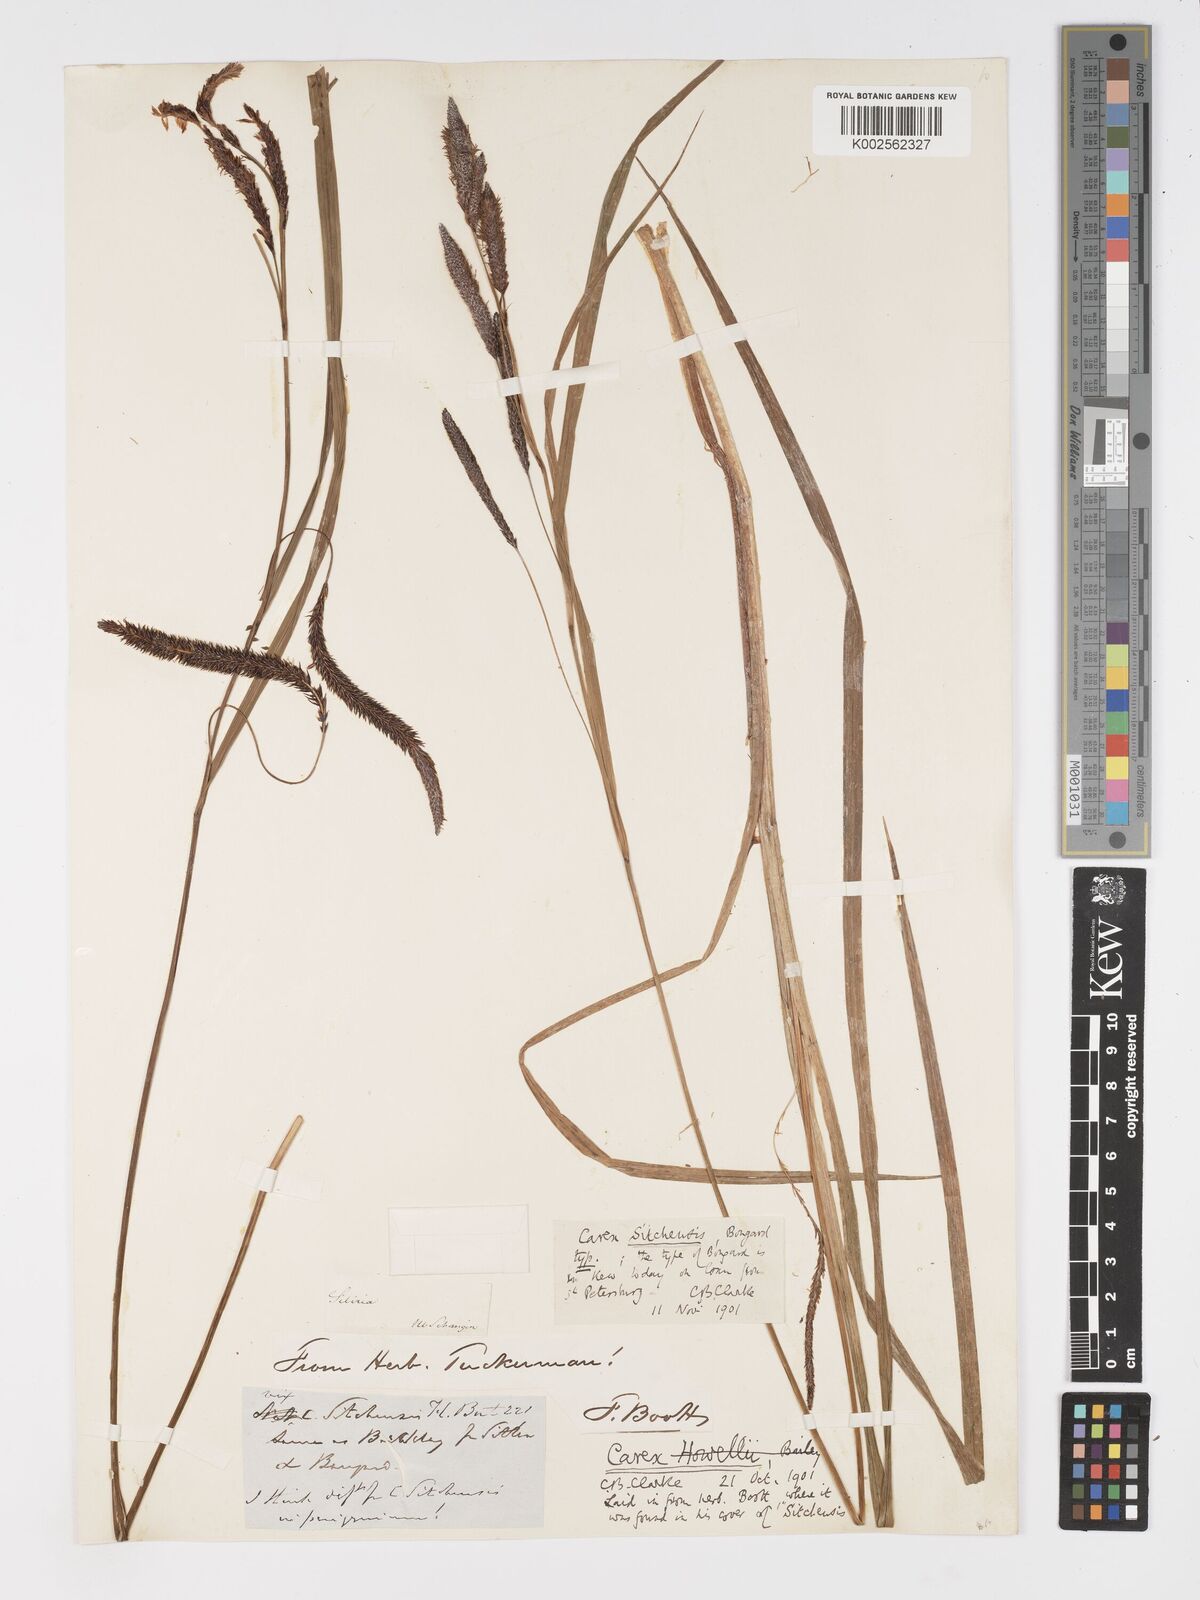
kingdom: Plantae
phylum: Tracheophyta
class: Liliopsida
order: Poales
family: Cyperaceae
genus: Carex
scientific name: Carex aquatilis
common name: Water sedge
